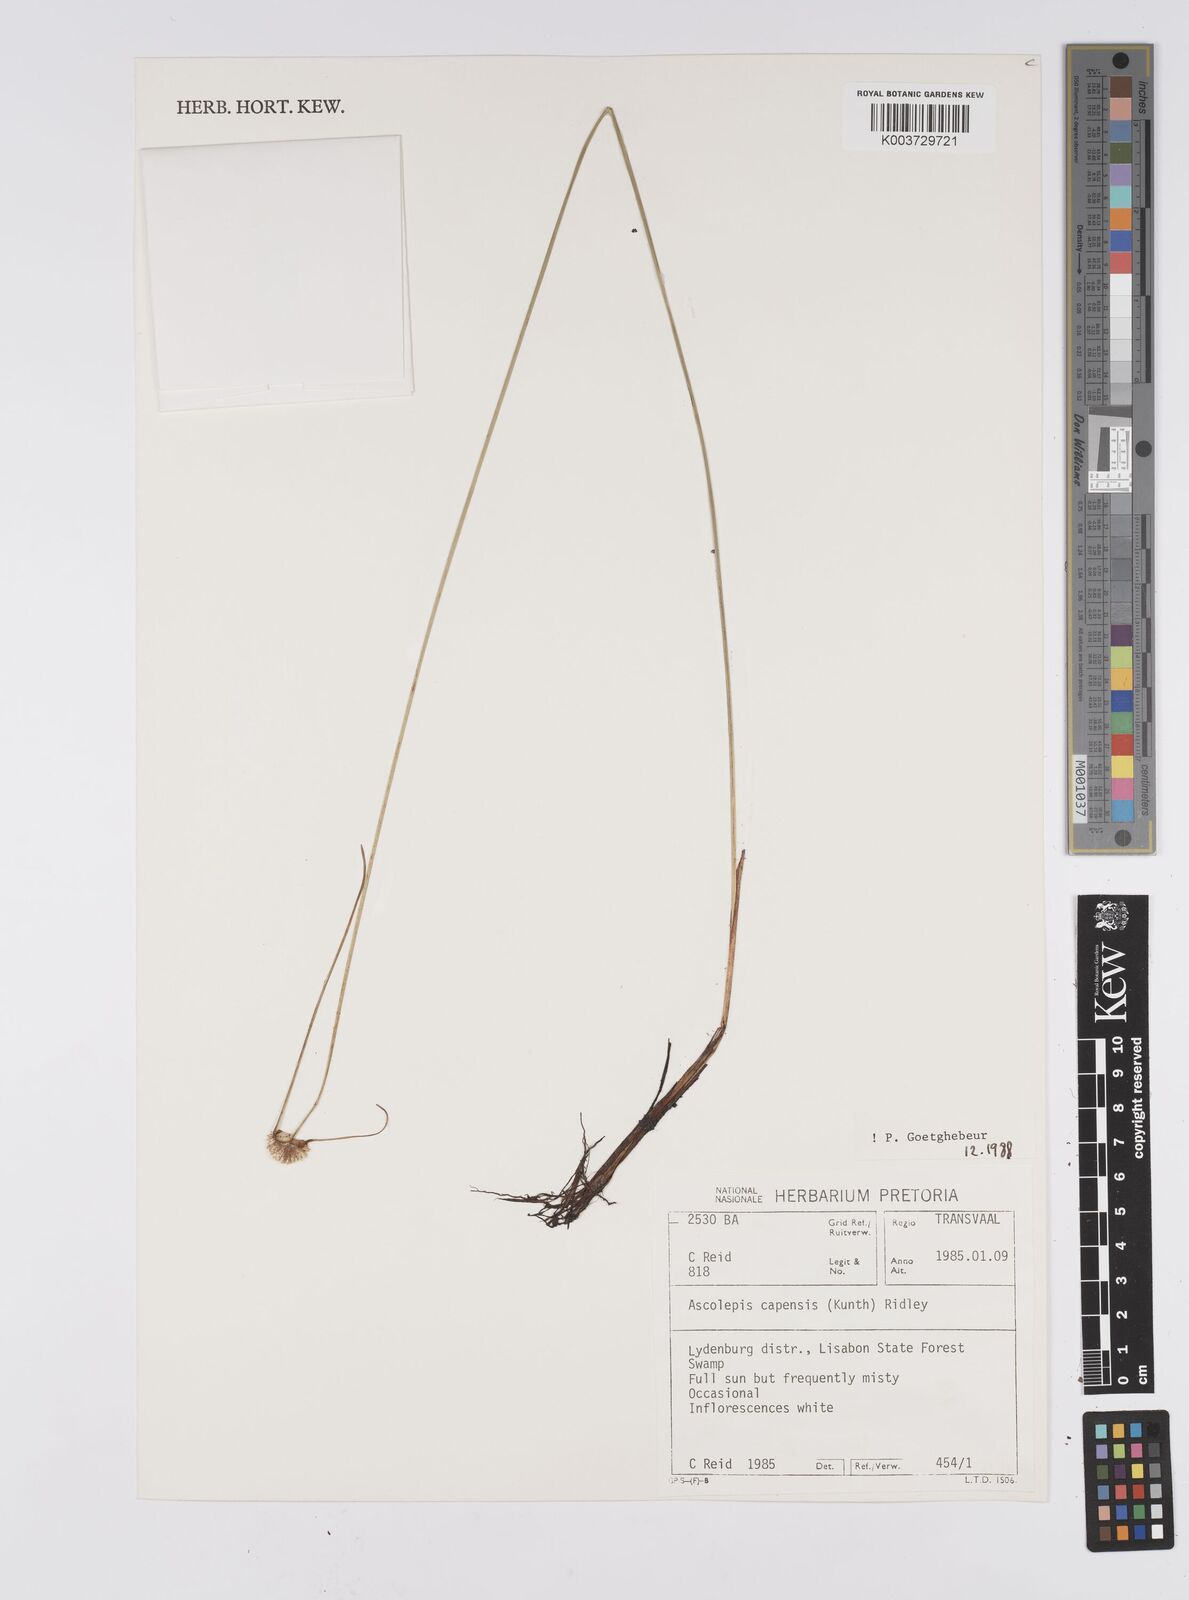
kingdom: Plantae
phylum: Tracheophyta
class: Liliopsida
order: Poales
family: Cyperaceae
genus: Cyperus
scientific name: Cyperus capensis
